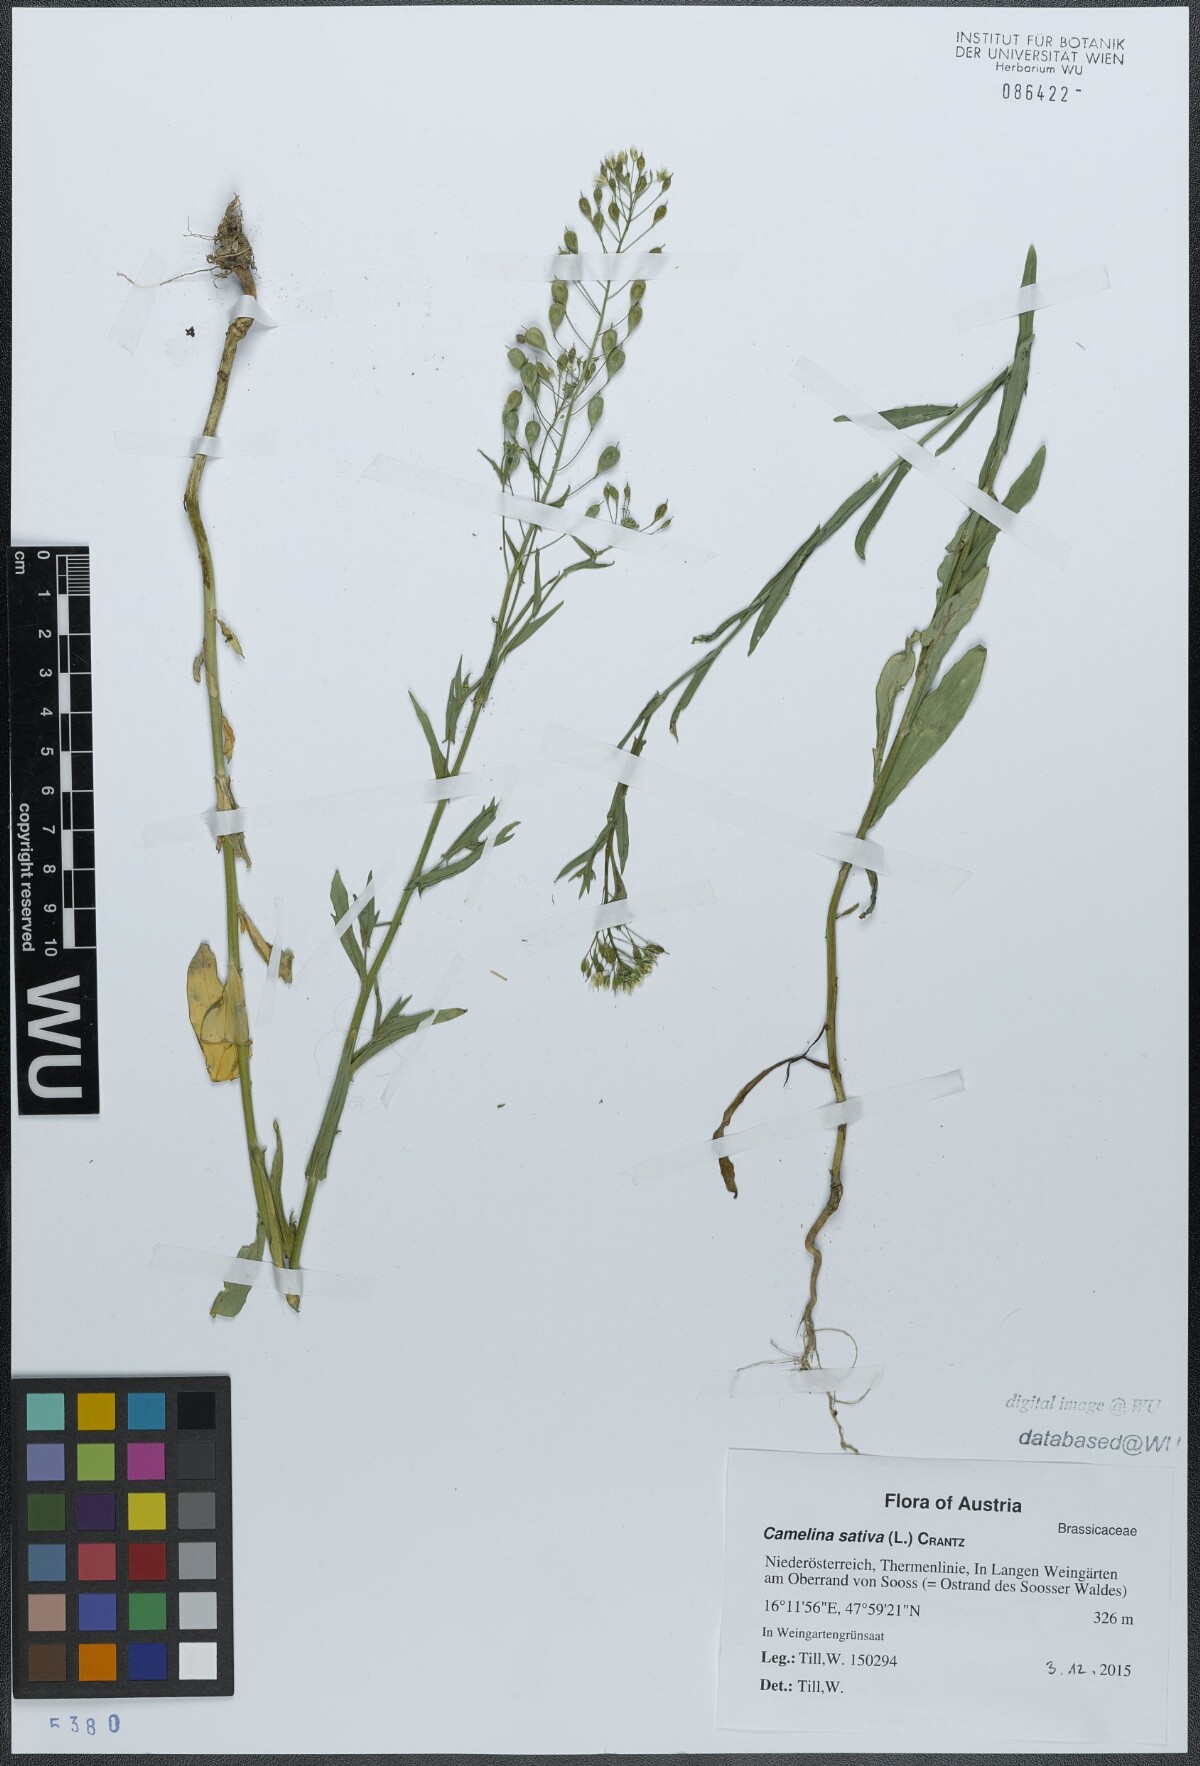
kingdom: Plantae
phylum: Tracheophyta
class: Magnoliopsida
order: Brassicales
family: Brassicaceae
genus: Camelina
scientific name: Camelina sativa
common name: Gold-of-pleasure
